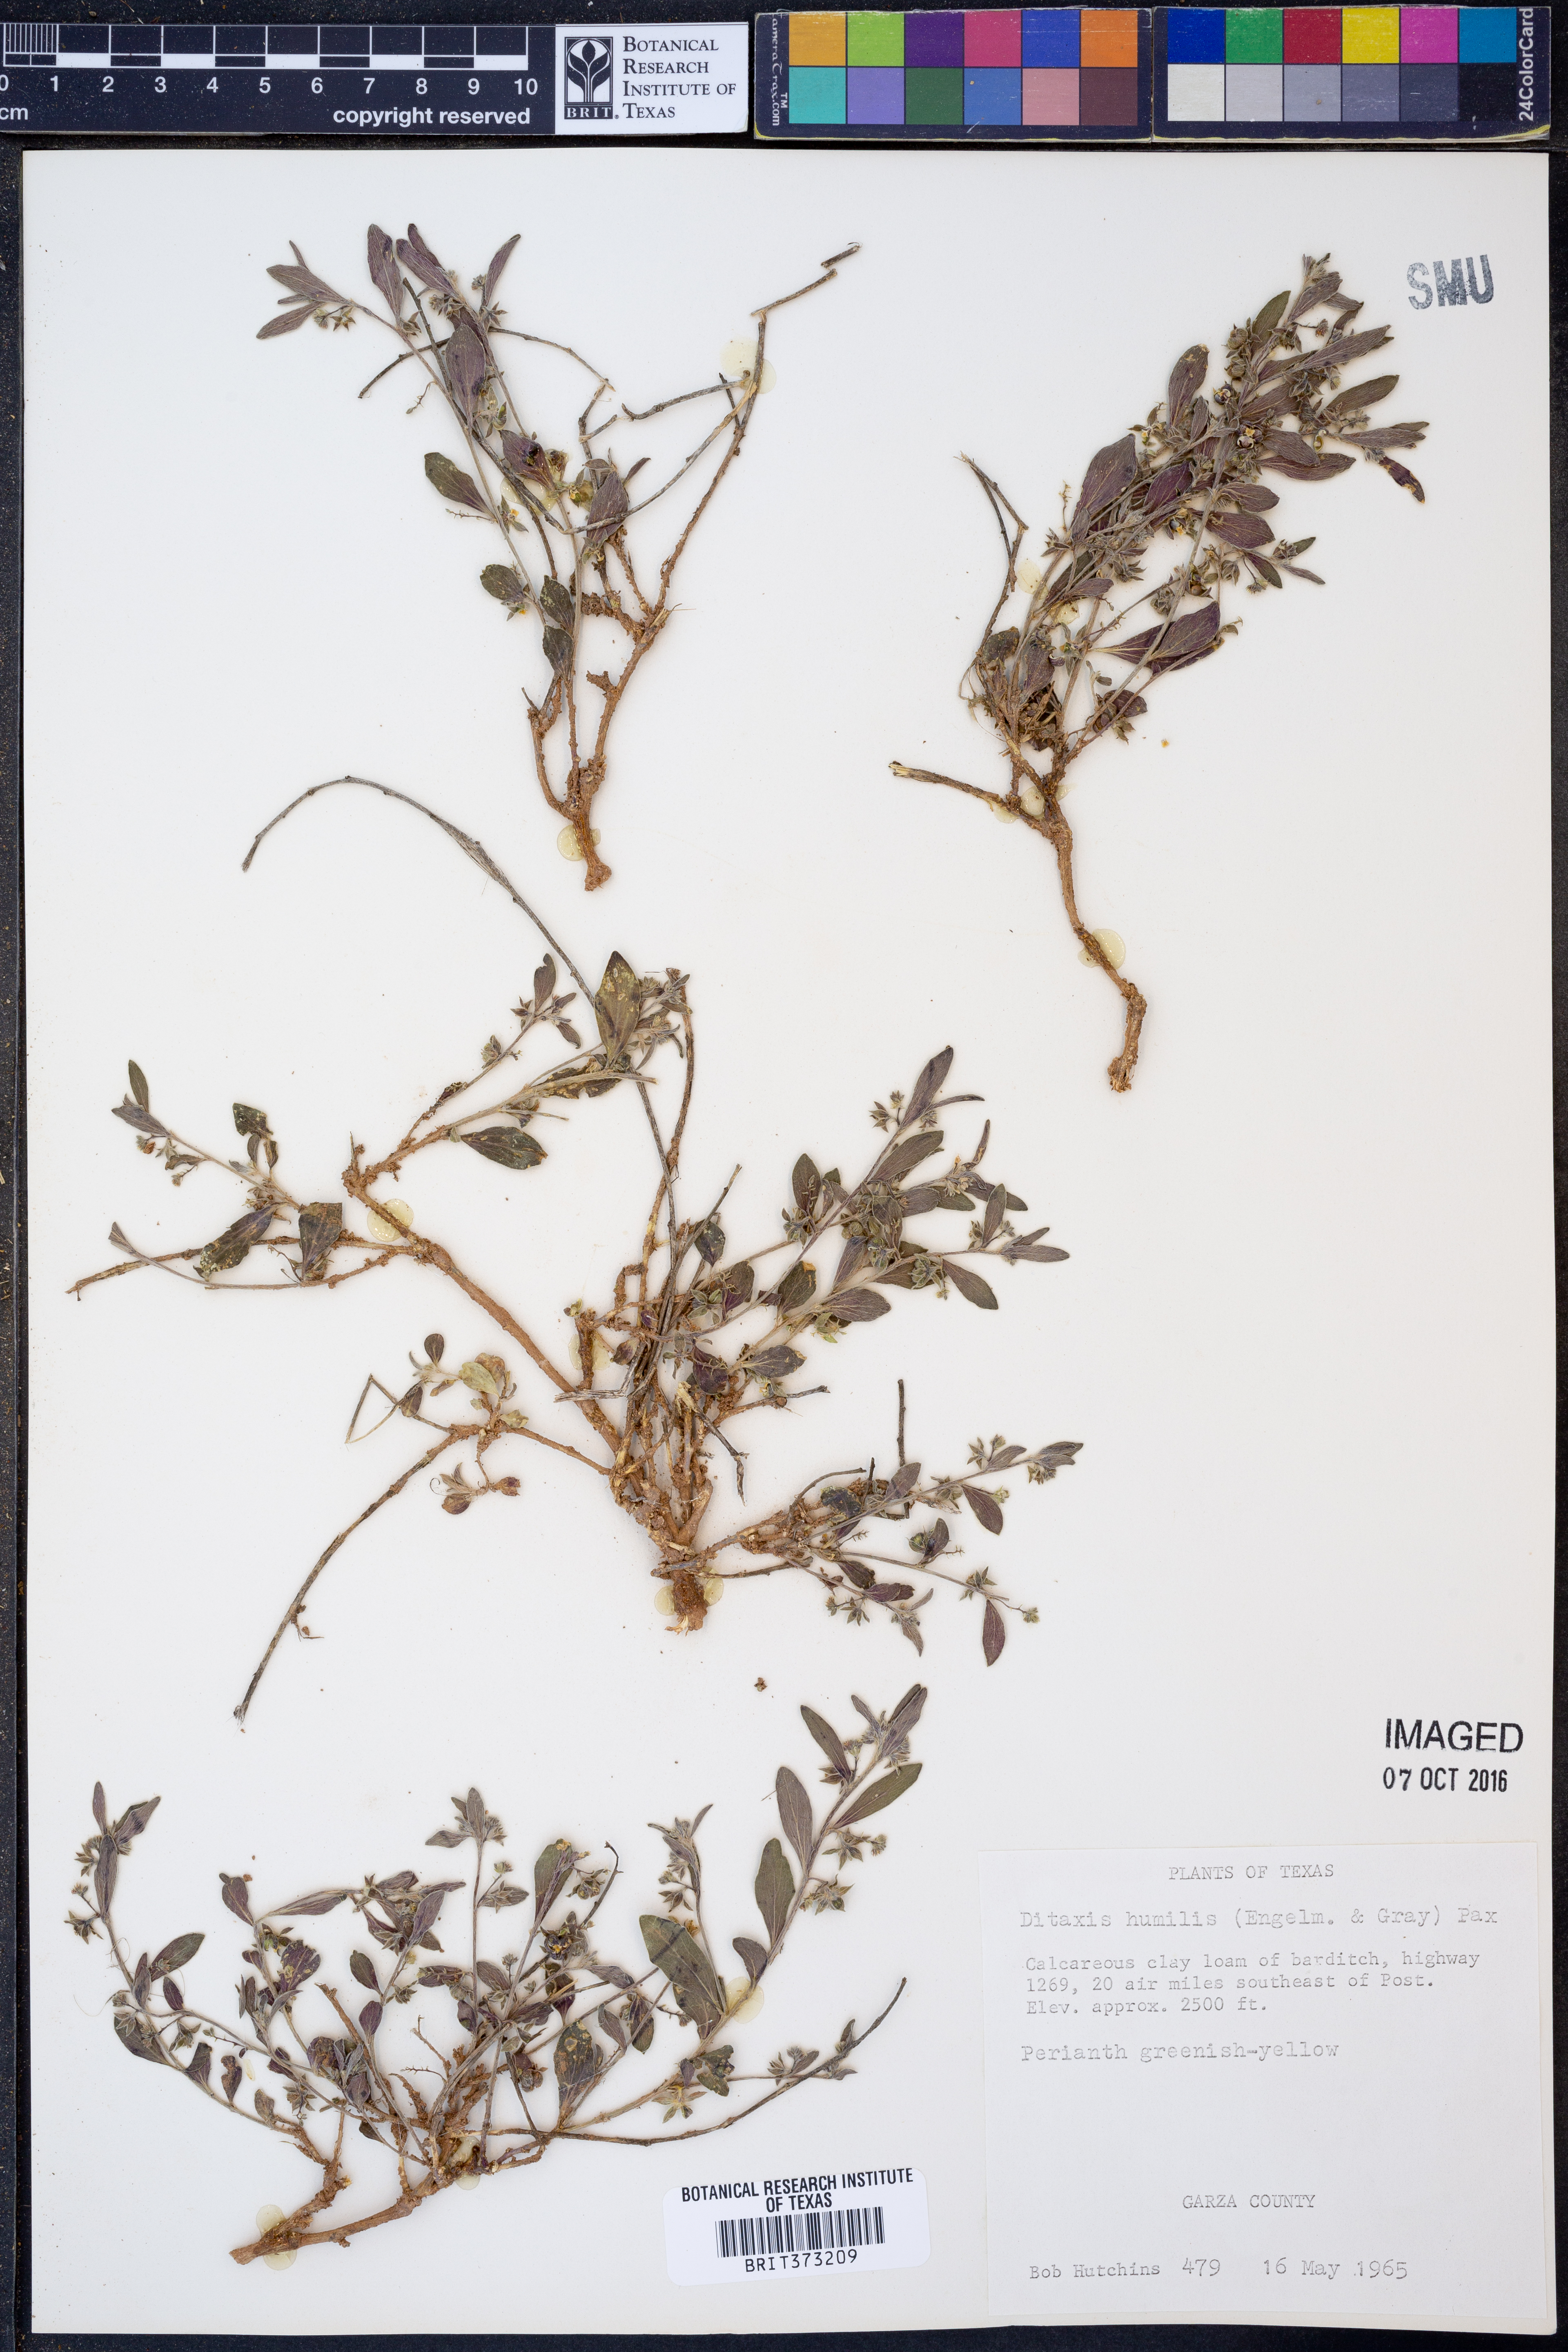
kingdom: Plantae
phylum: Tracheophyta
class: Magnoliopsida
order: Malpighiales
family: Euphorbiaceae
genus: Ditaxis
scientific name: Ditaxis humilis
